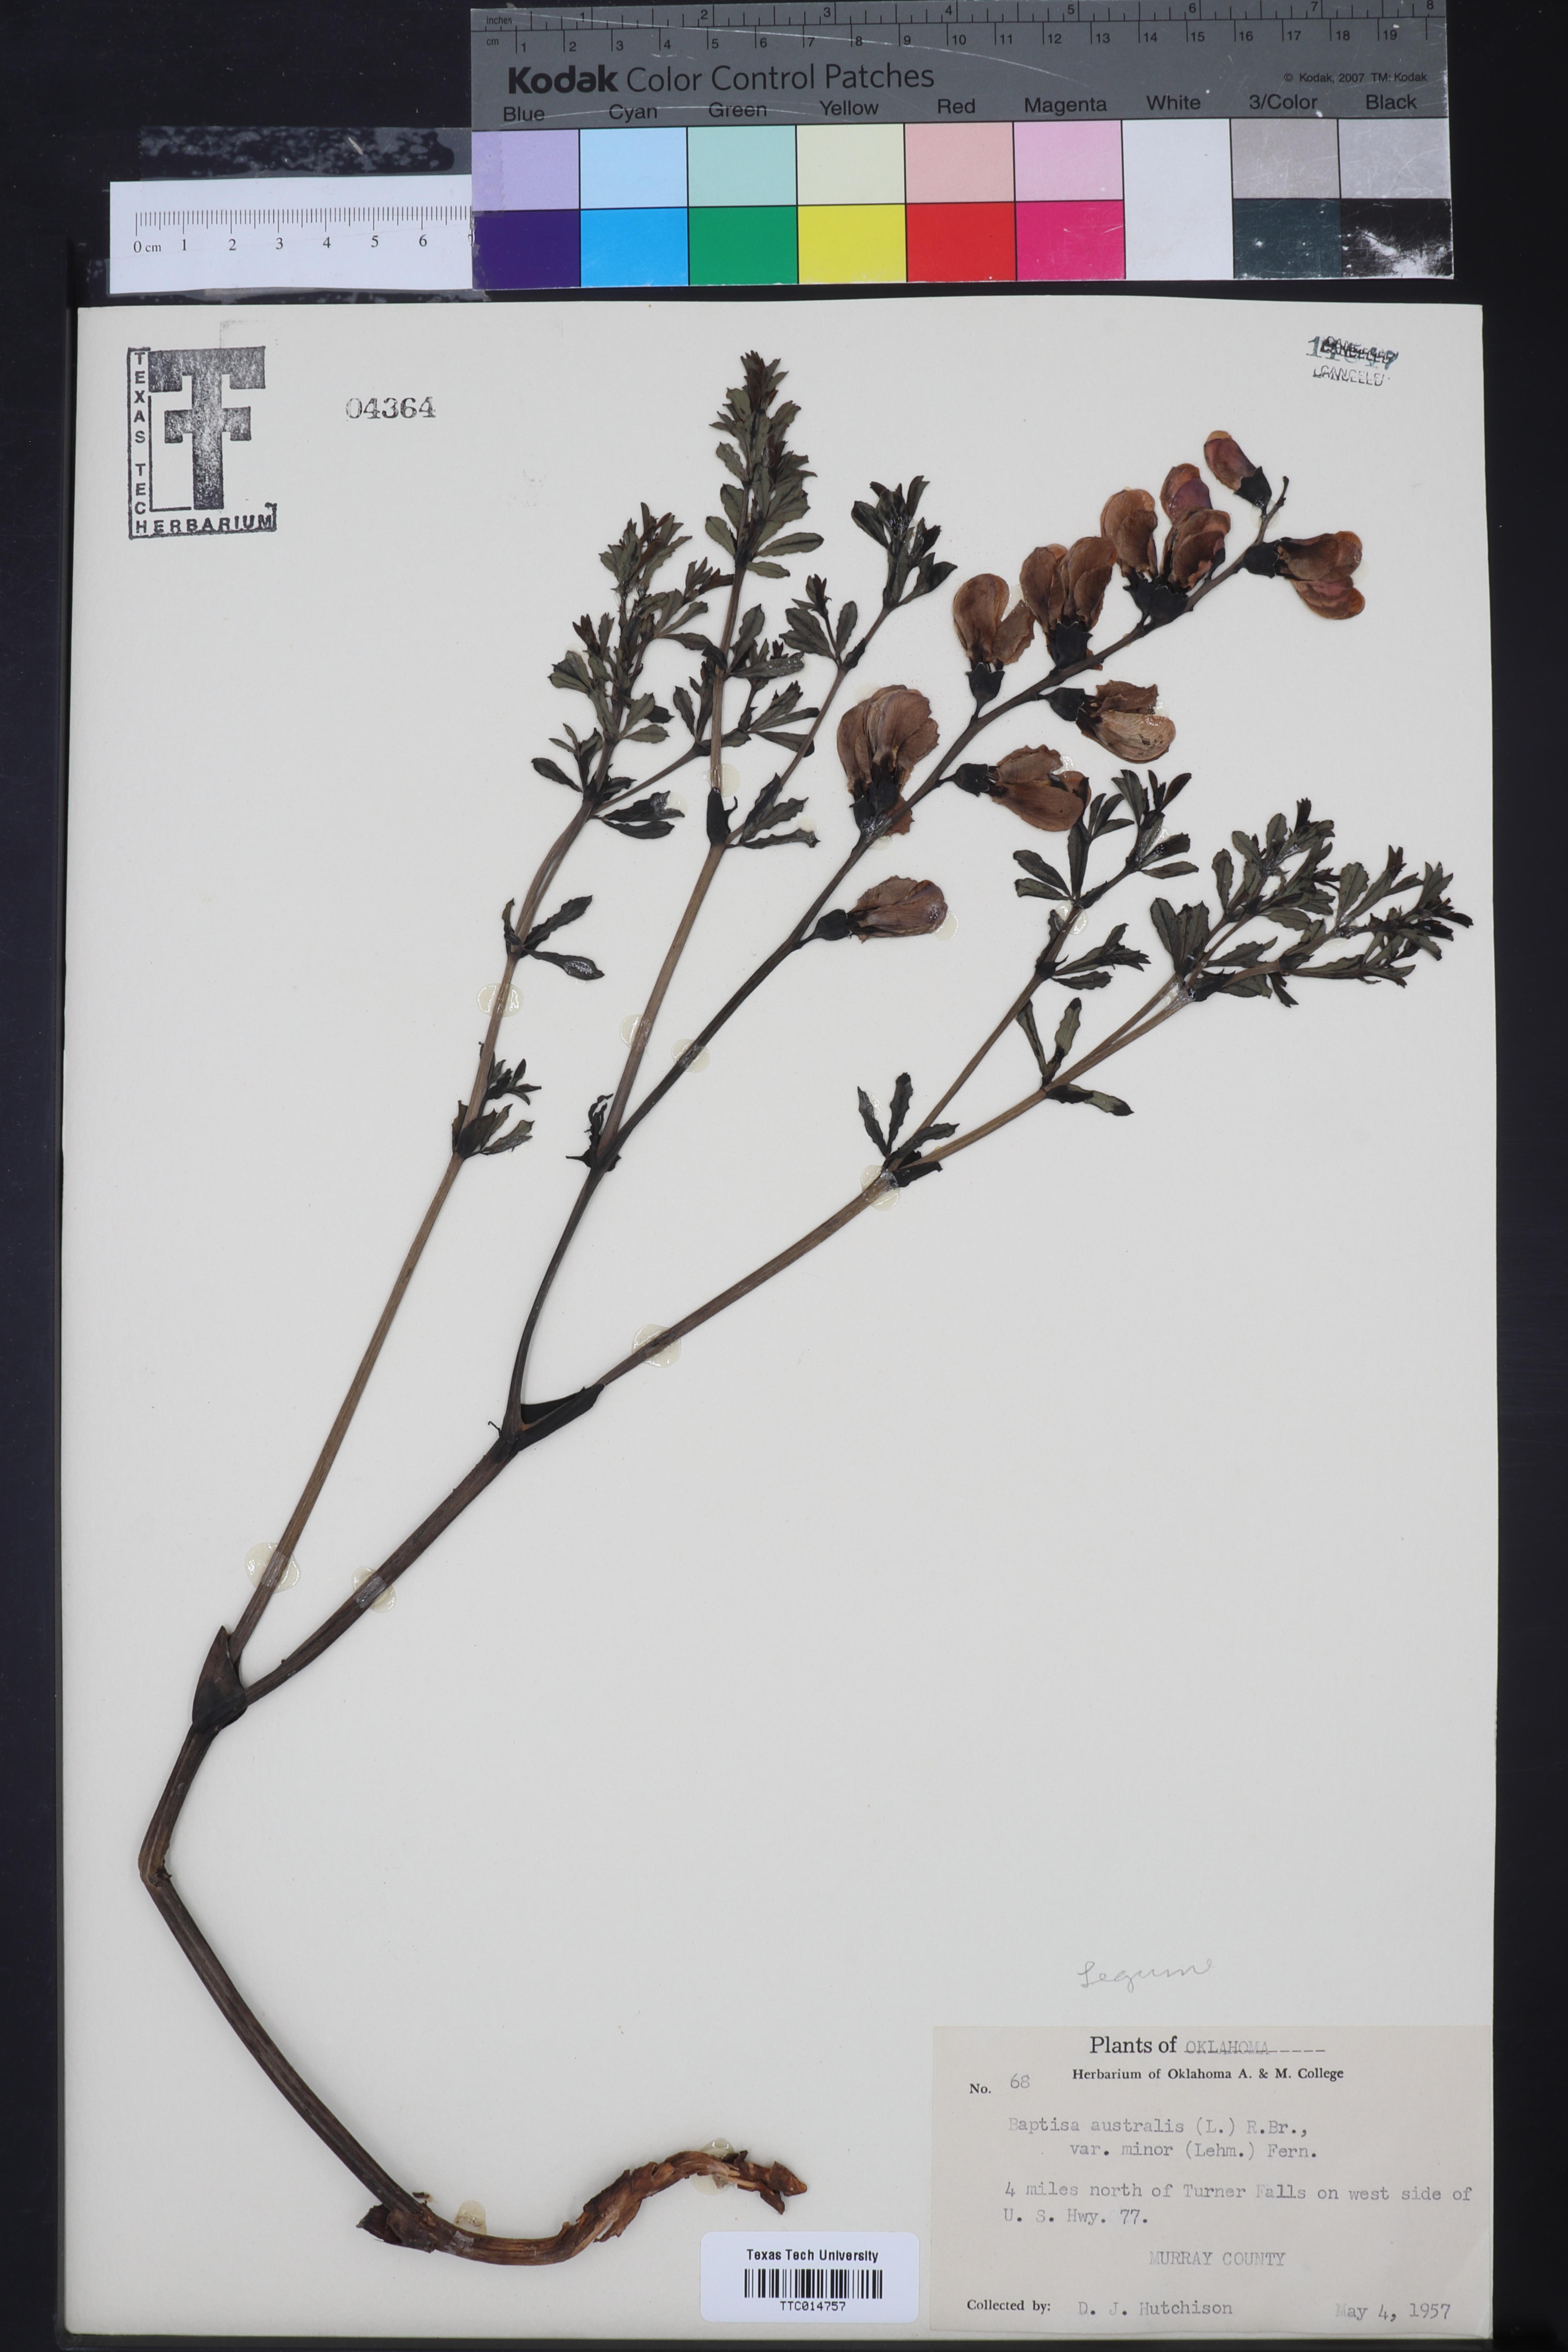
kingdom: Plantae
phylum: Tracheophyta
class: Magnoliopsida
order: Fabales
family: Fabaceae
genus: Baptisia
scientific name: Baptisia australis
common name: Blue false indigo
